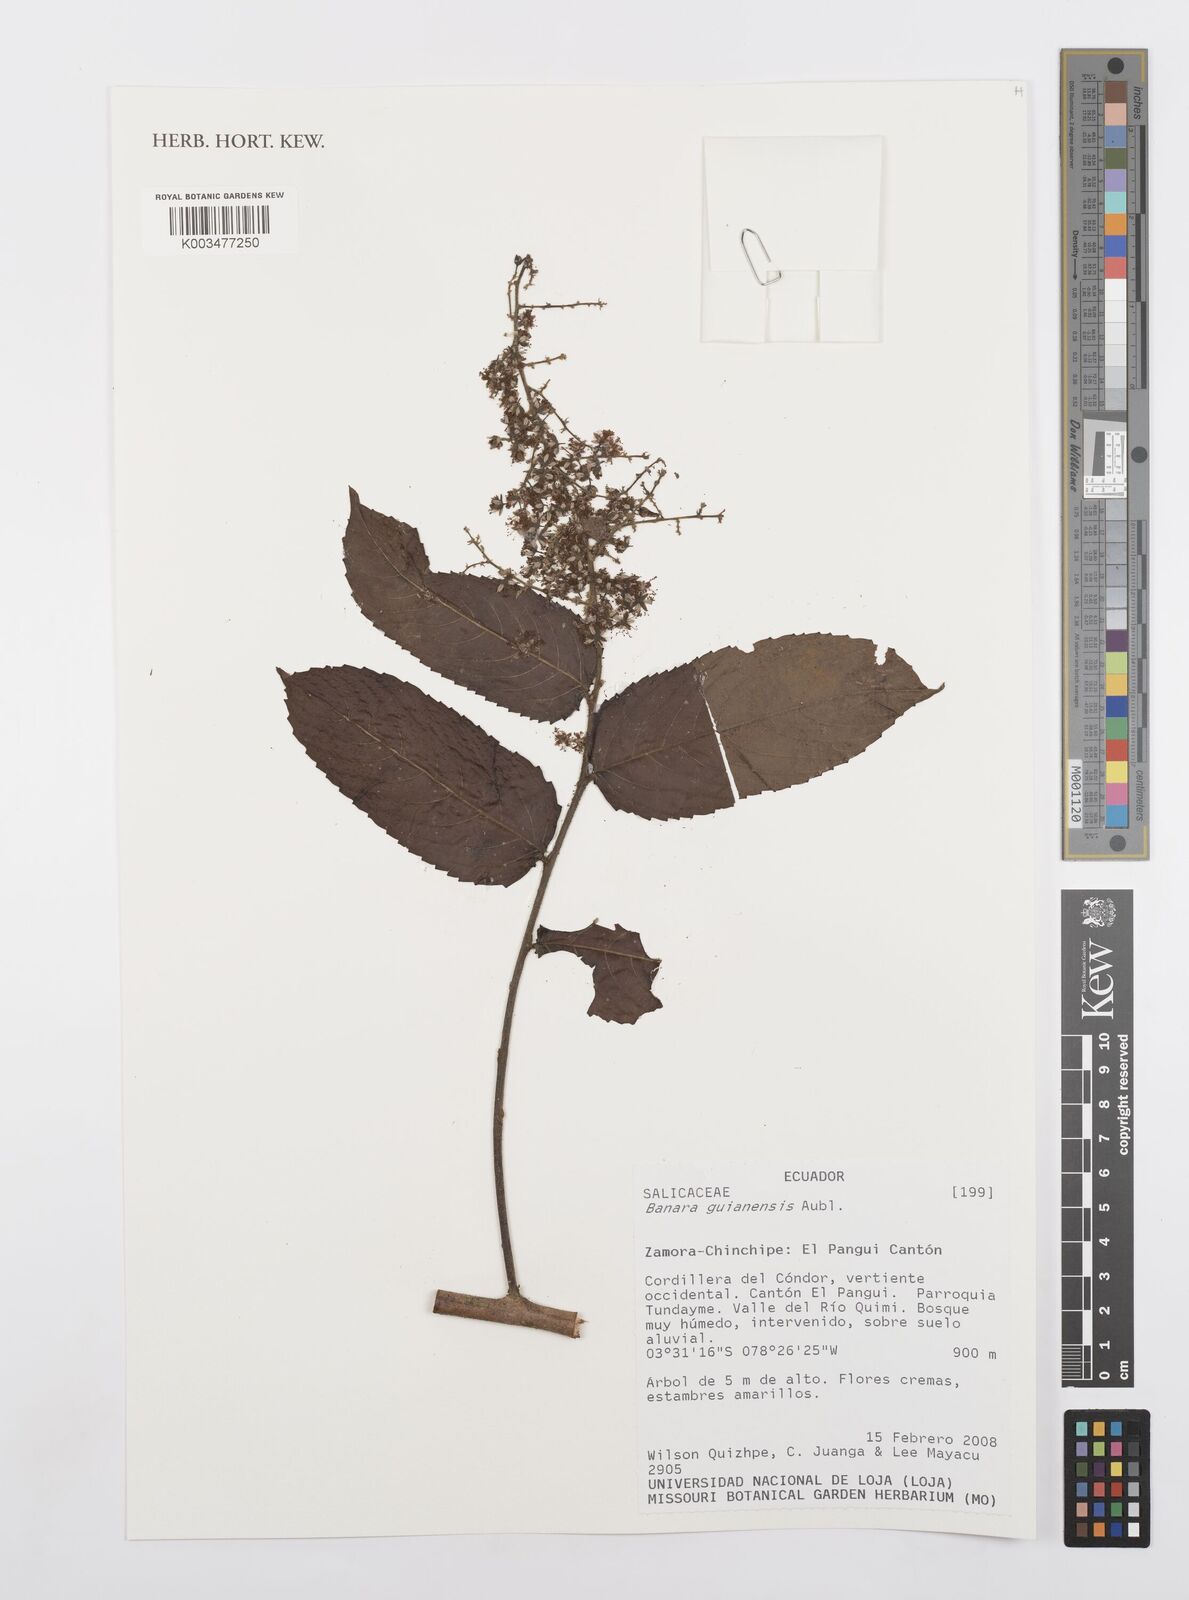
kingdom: Plantae
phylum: Tracheophyta
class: Magnoliopsida
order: Malpighiales
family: Salicaceae
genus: Banara
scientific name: Banara guianensis
